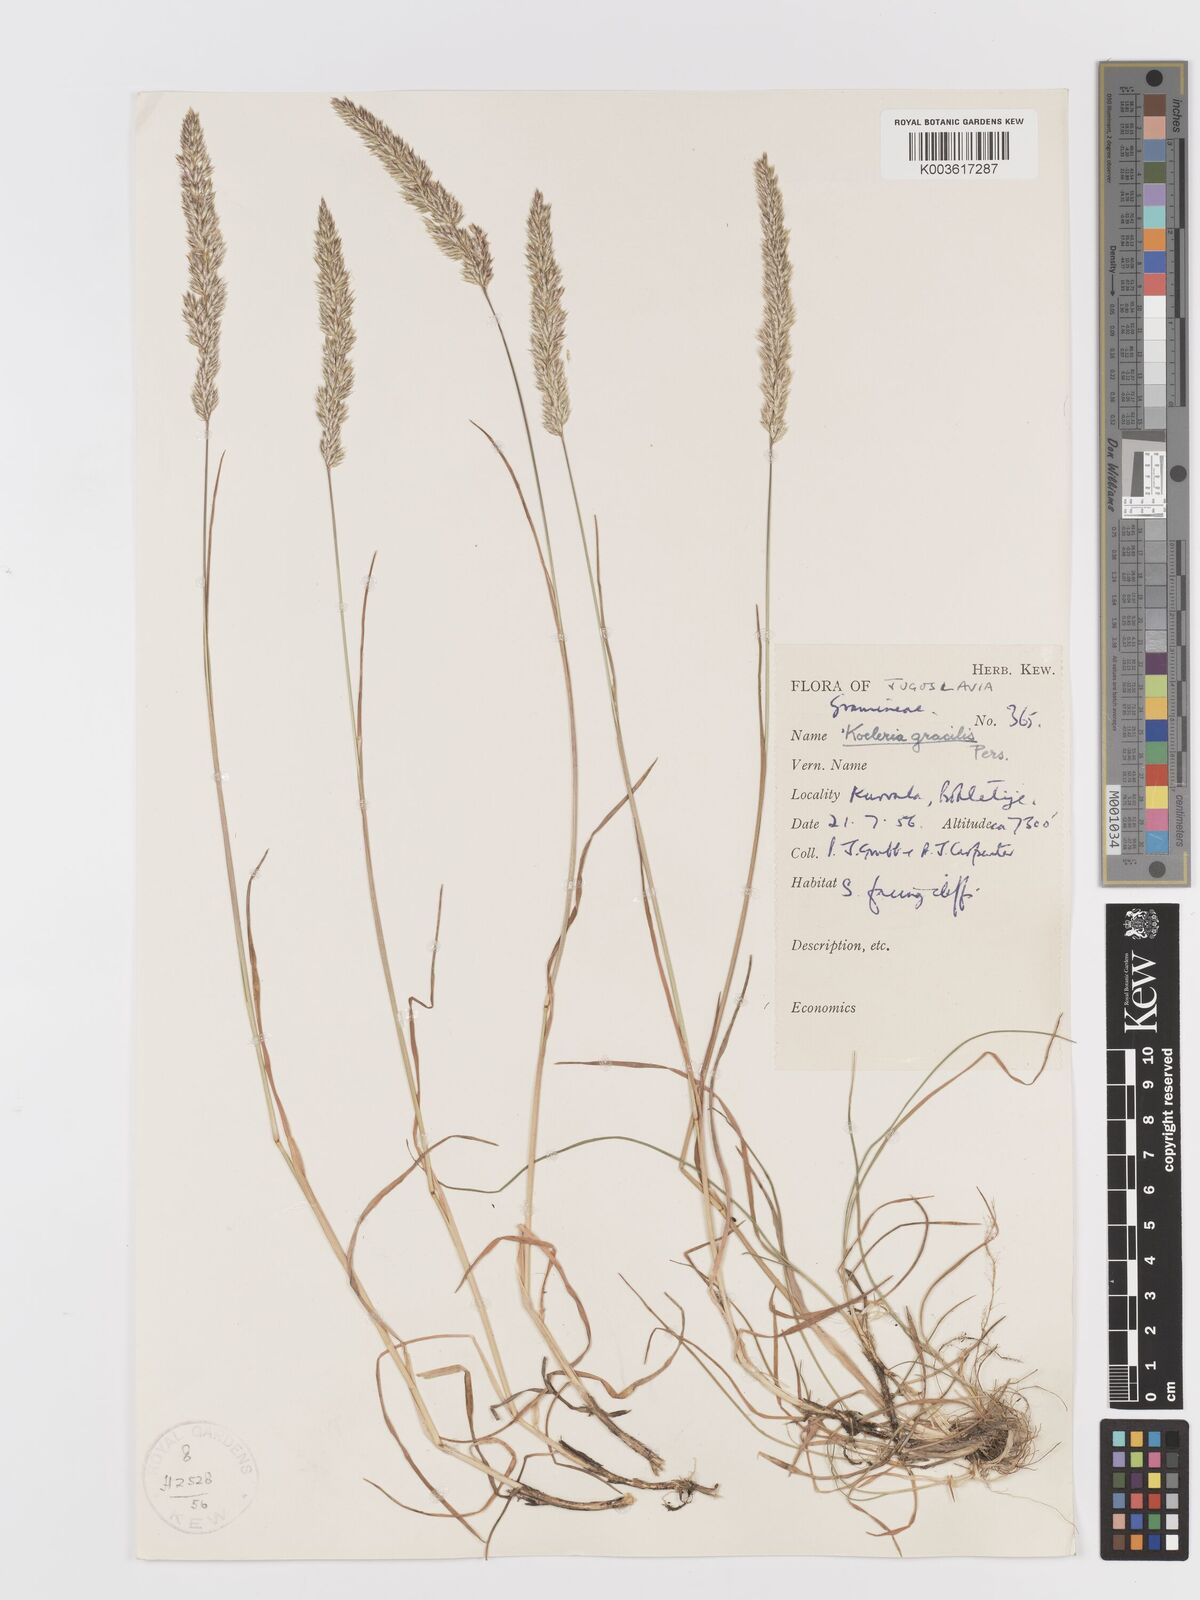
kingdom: Plantae
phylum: Tracheophyta
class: Liliopsida
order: Poales
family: Poaceae
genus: Koeleria
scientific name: Koeleria macrantha
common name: Crested hair-grass
